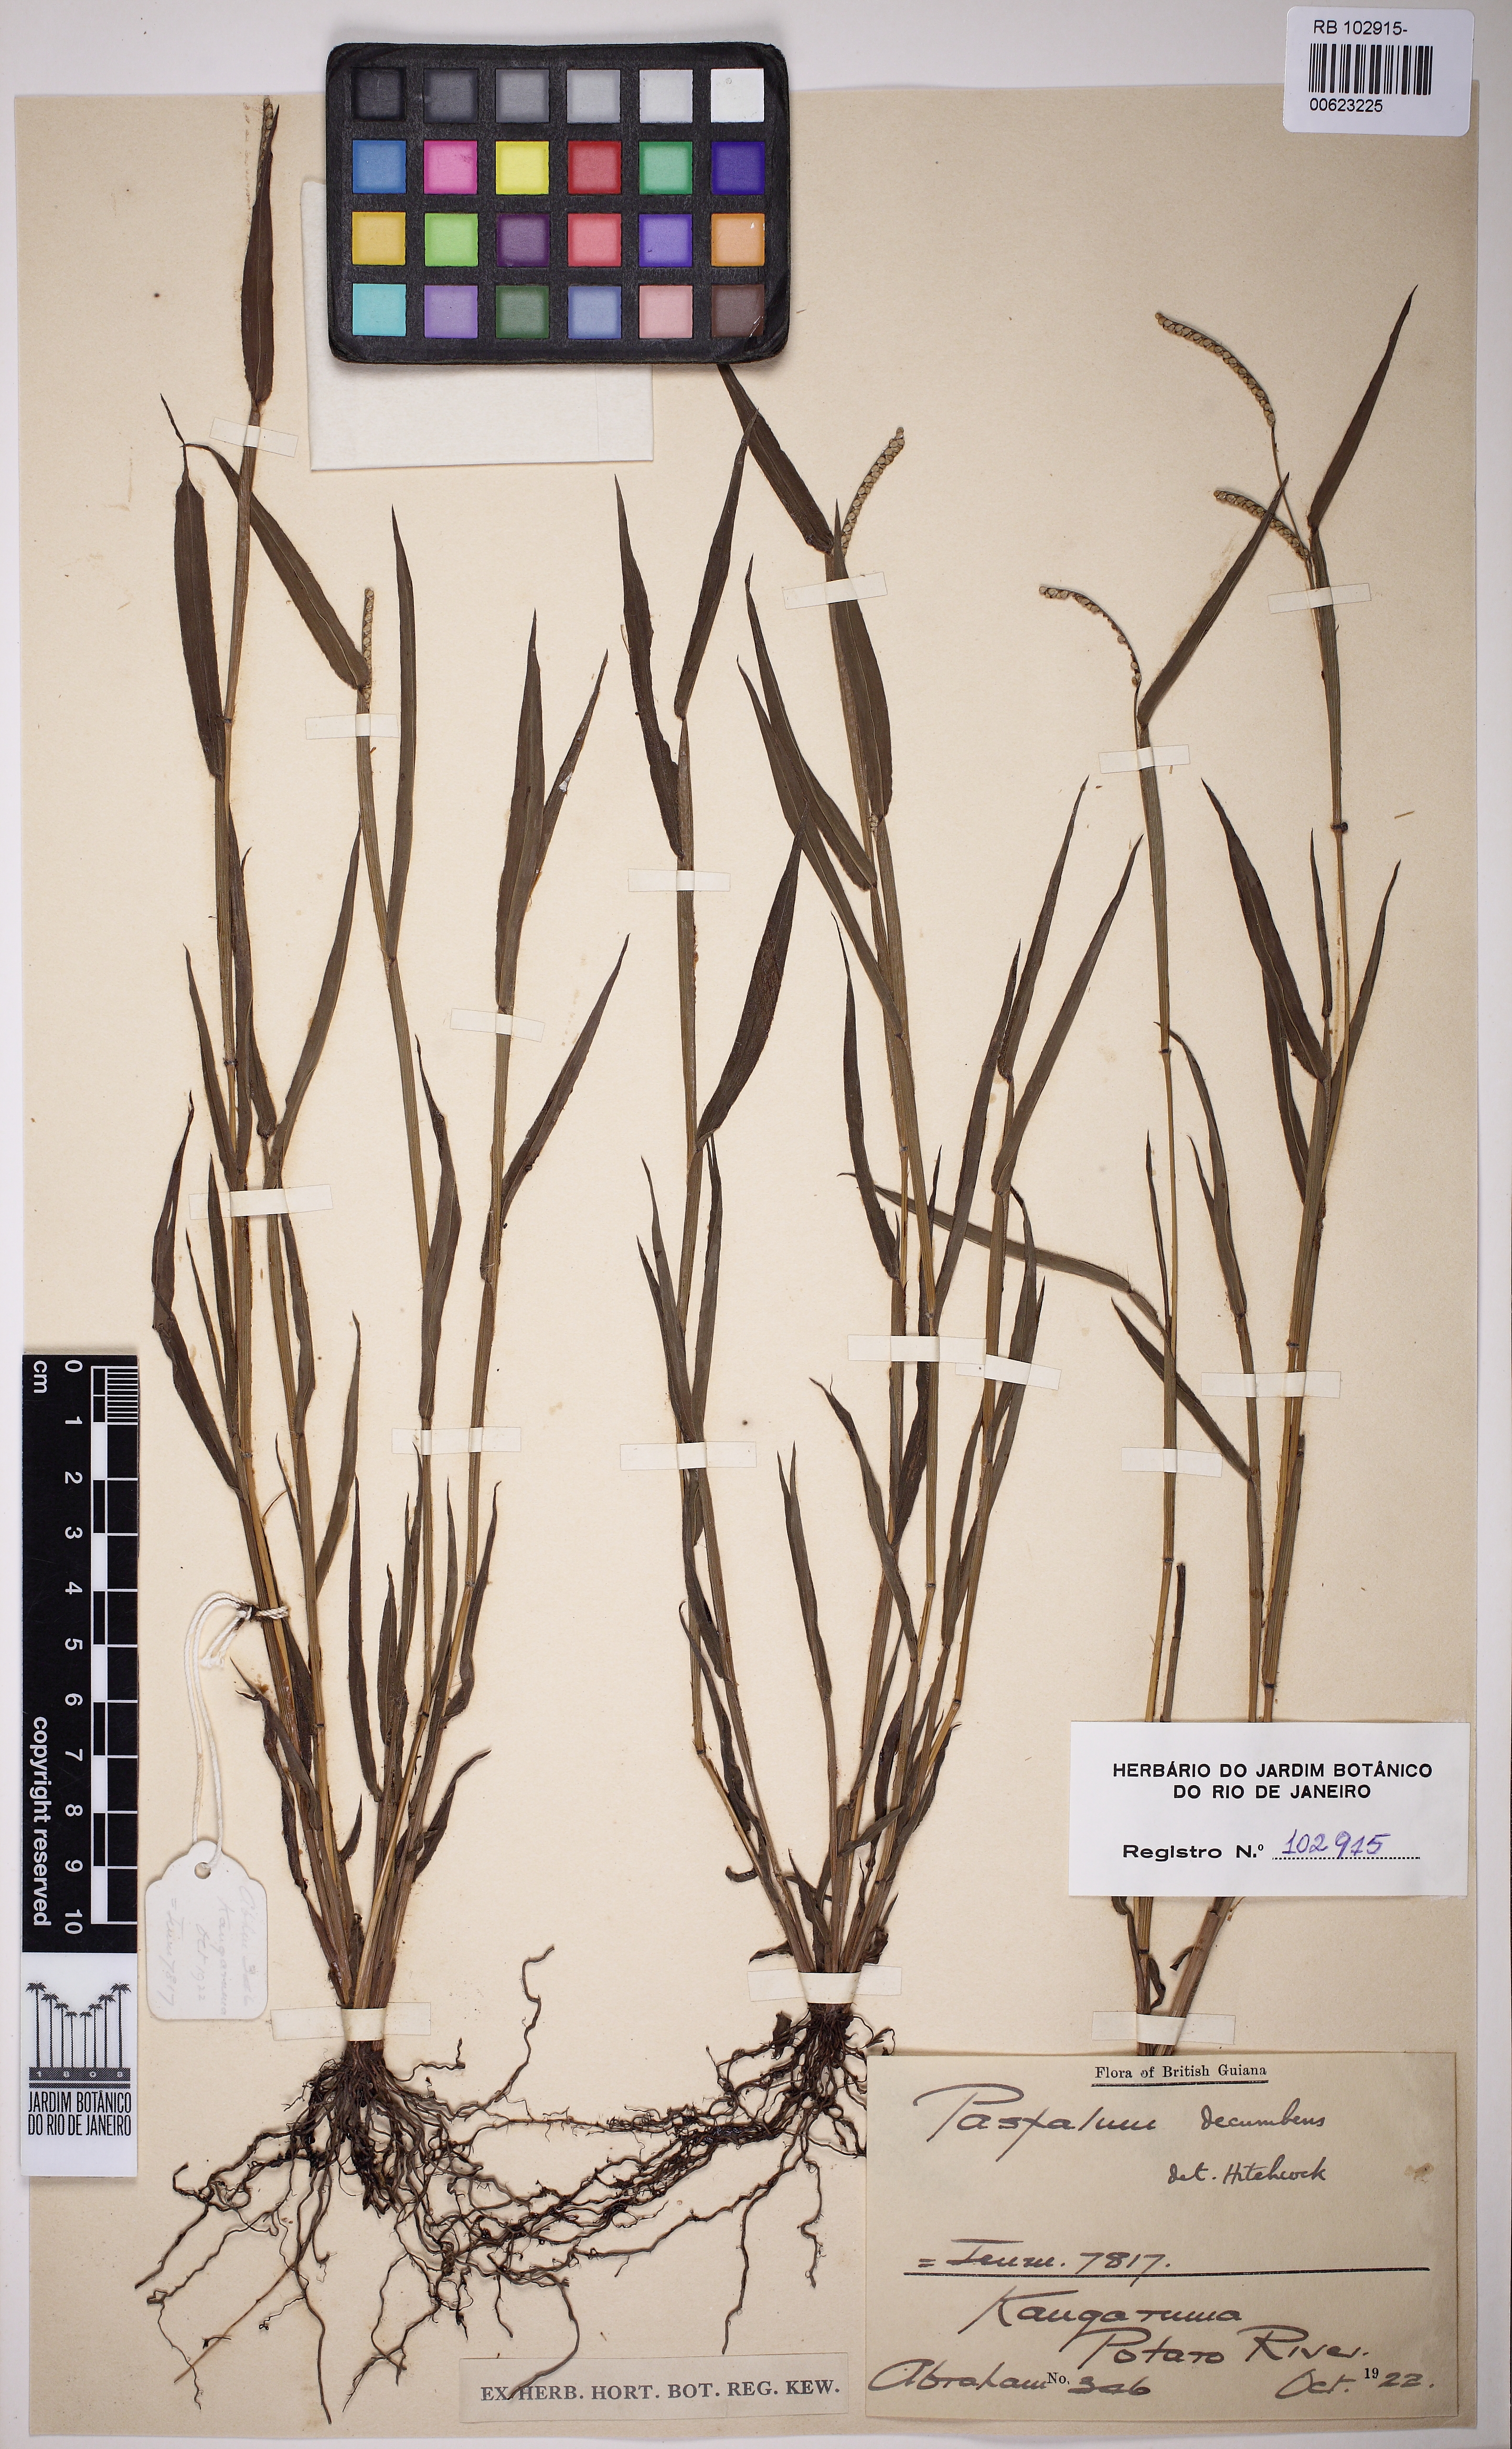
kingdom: Plantae
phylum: Tracheophyta
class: Liliopsida
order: Poales
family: Poaceae
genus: Paspalum
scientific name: Paspalum decumbens
